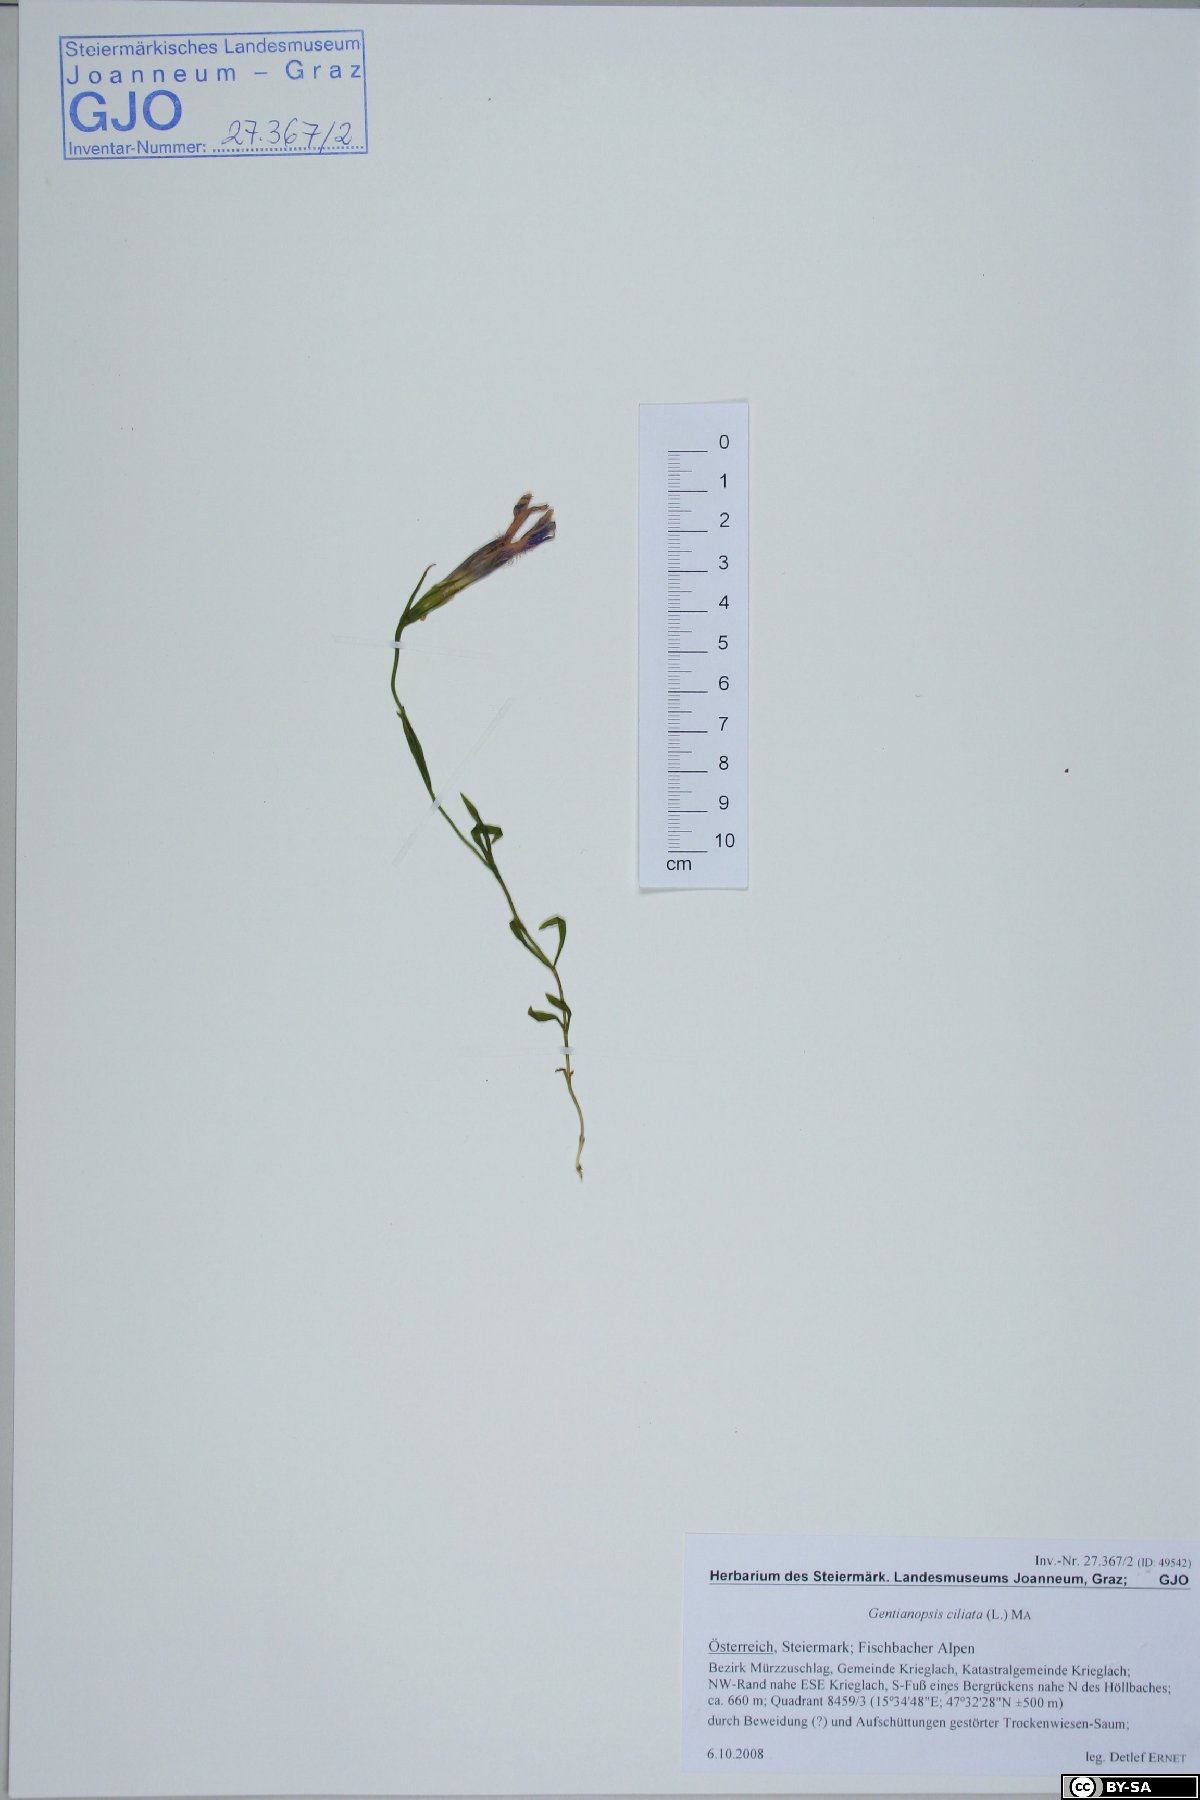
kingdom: Plantae
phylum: Tracheophyta
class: Magnoliopsida
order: Gentianales
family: Gentianaceae
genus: Gentianopsis
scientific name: Gentianopsis ciliata
